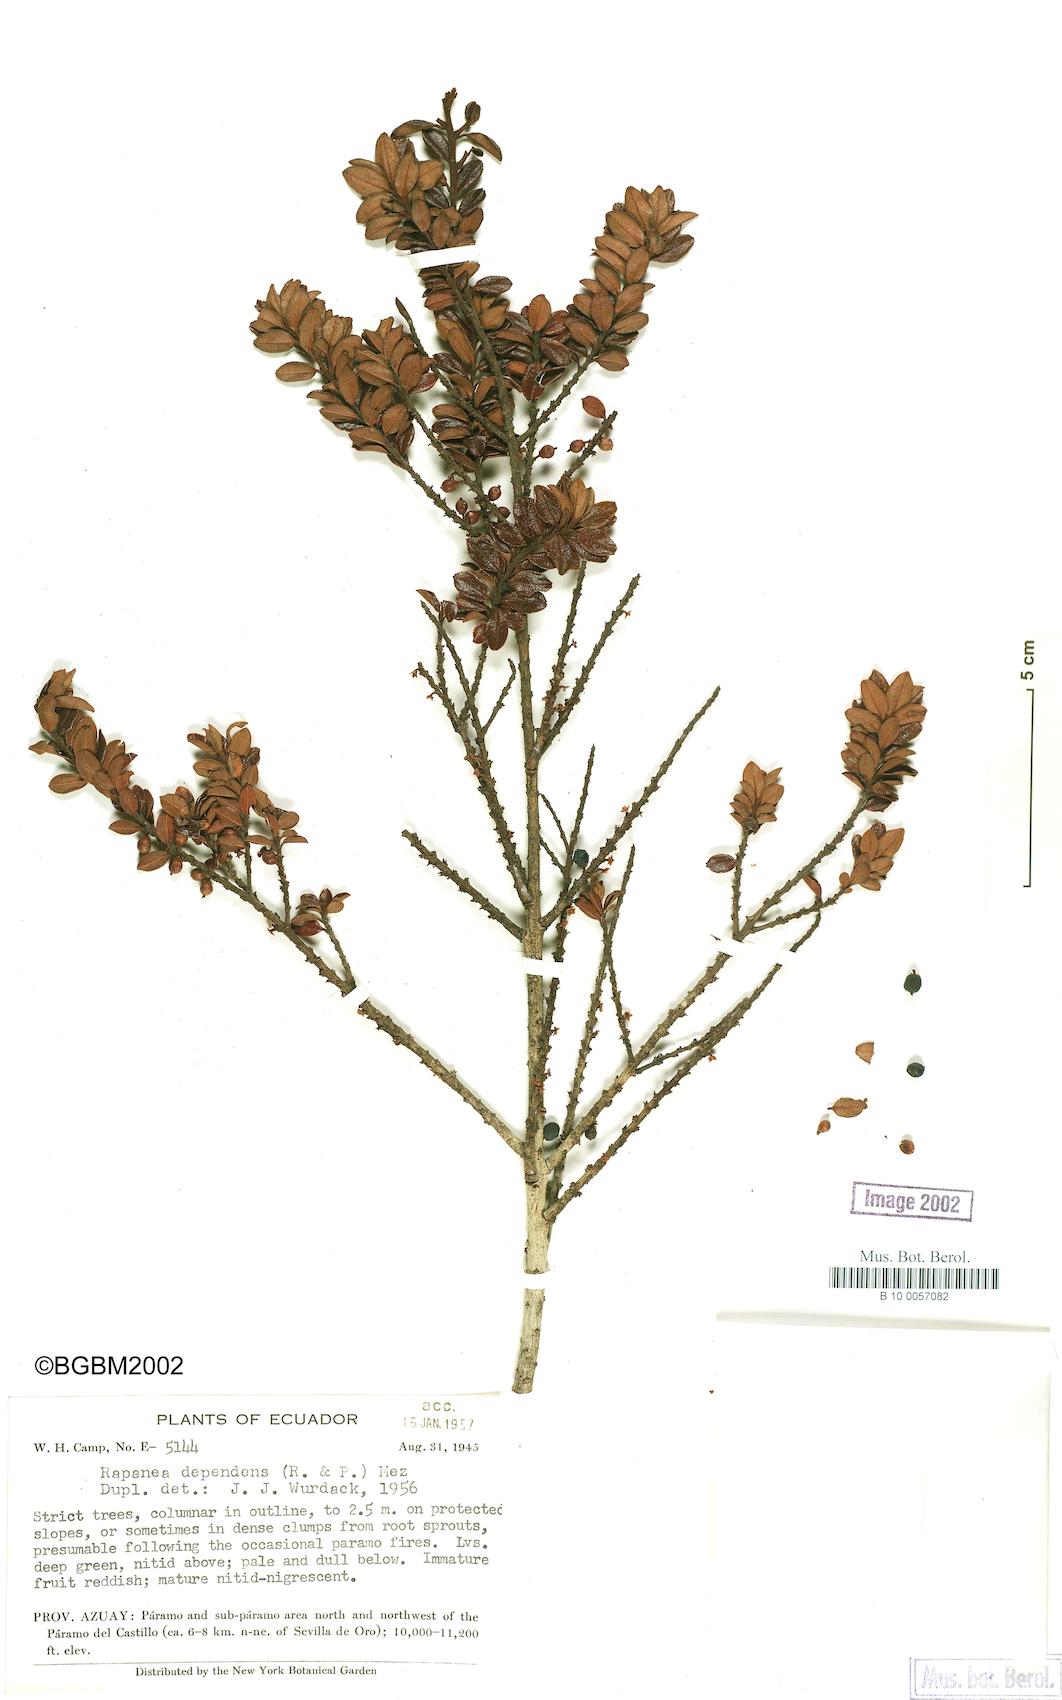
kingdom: Plantae
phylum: Tracheophyta
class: Magnoliopsida
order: Ericales
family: Primulaceae
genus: Myrsine
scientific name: Myrsine dependens
